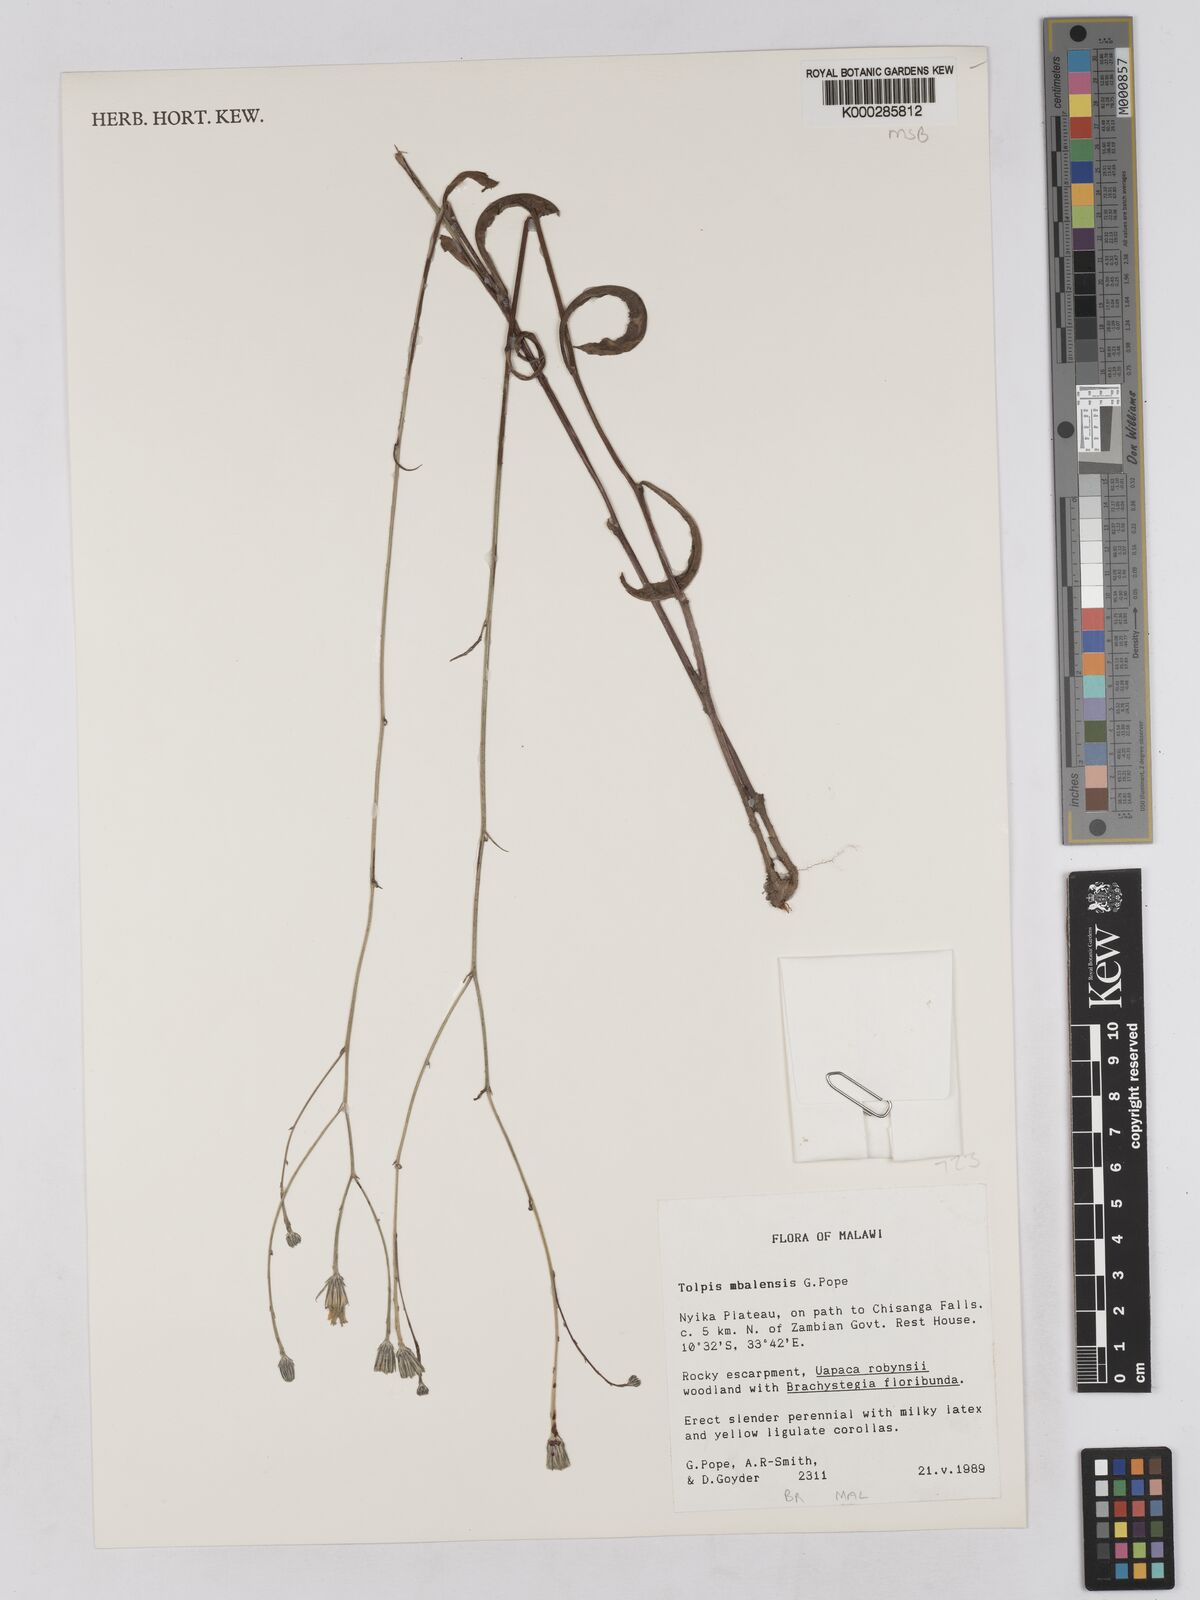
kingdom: Plantae
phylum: Tracheophyta
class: Magnoliopsida
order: Asterales
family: Asteraceae
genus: Tolpis
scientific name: Tolpis mbalensis
